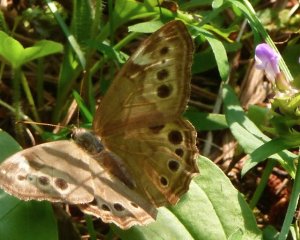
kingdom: Animalia
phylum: Arthropoda
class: Insecta
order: Lepidoptera
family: Nymphalidae
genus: Lethe
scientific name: Lethe anthedon
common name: Northern Pearly-Eye
